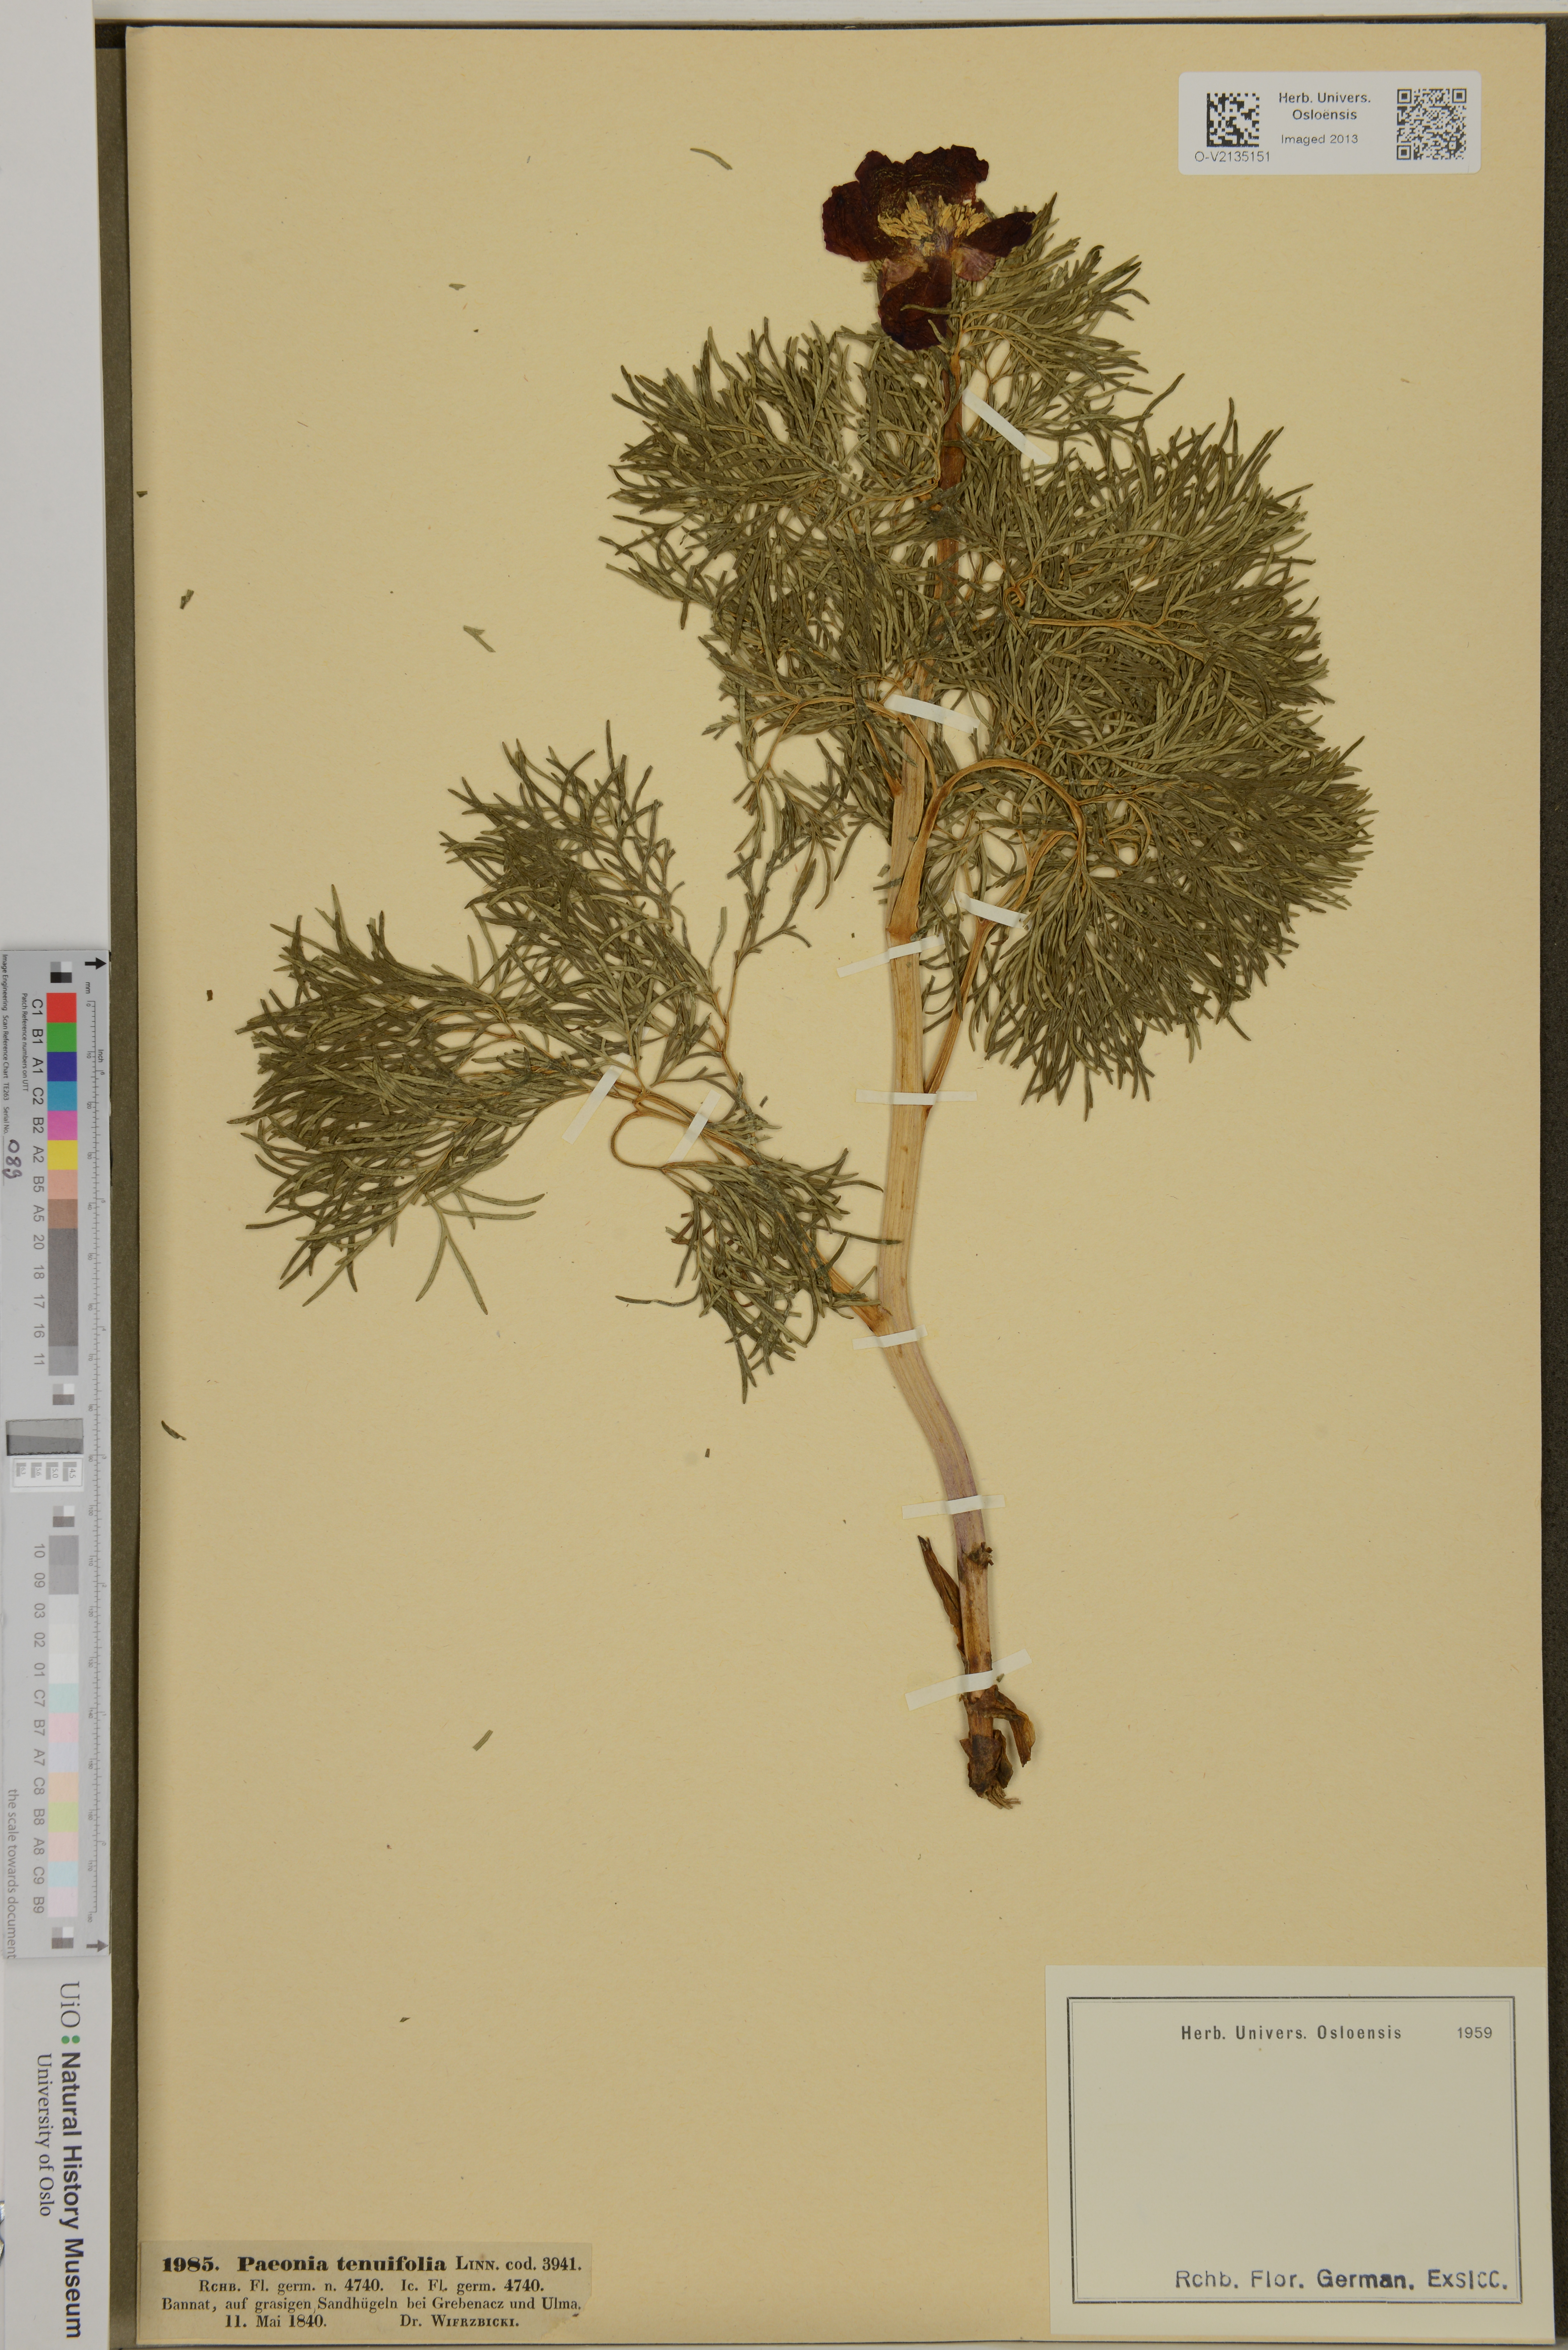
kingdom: Plantae
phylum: Tracheophyta
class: Magnoliopsida
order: Saxifragales
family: Paeoniaceae
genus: Paeonia
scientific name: Paeonia tenuifolia
